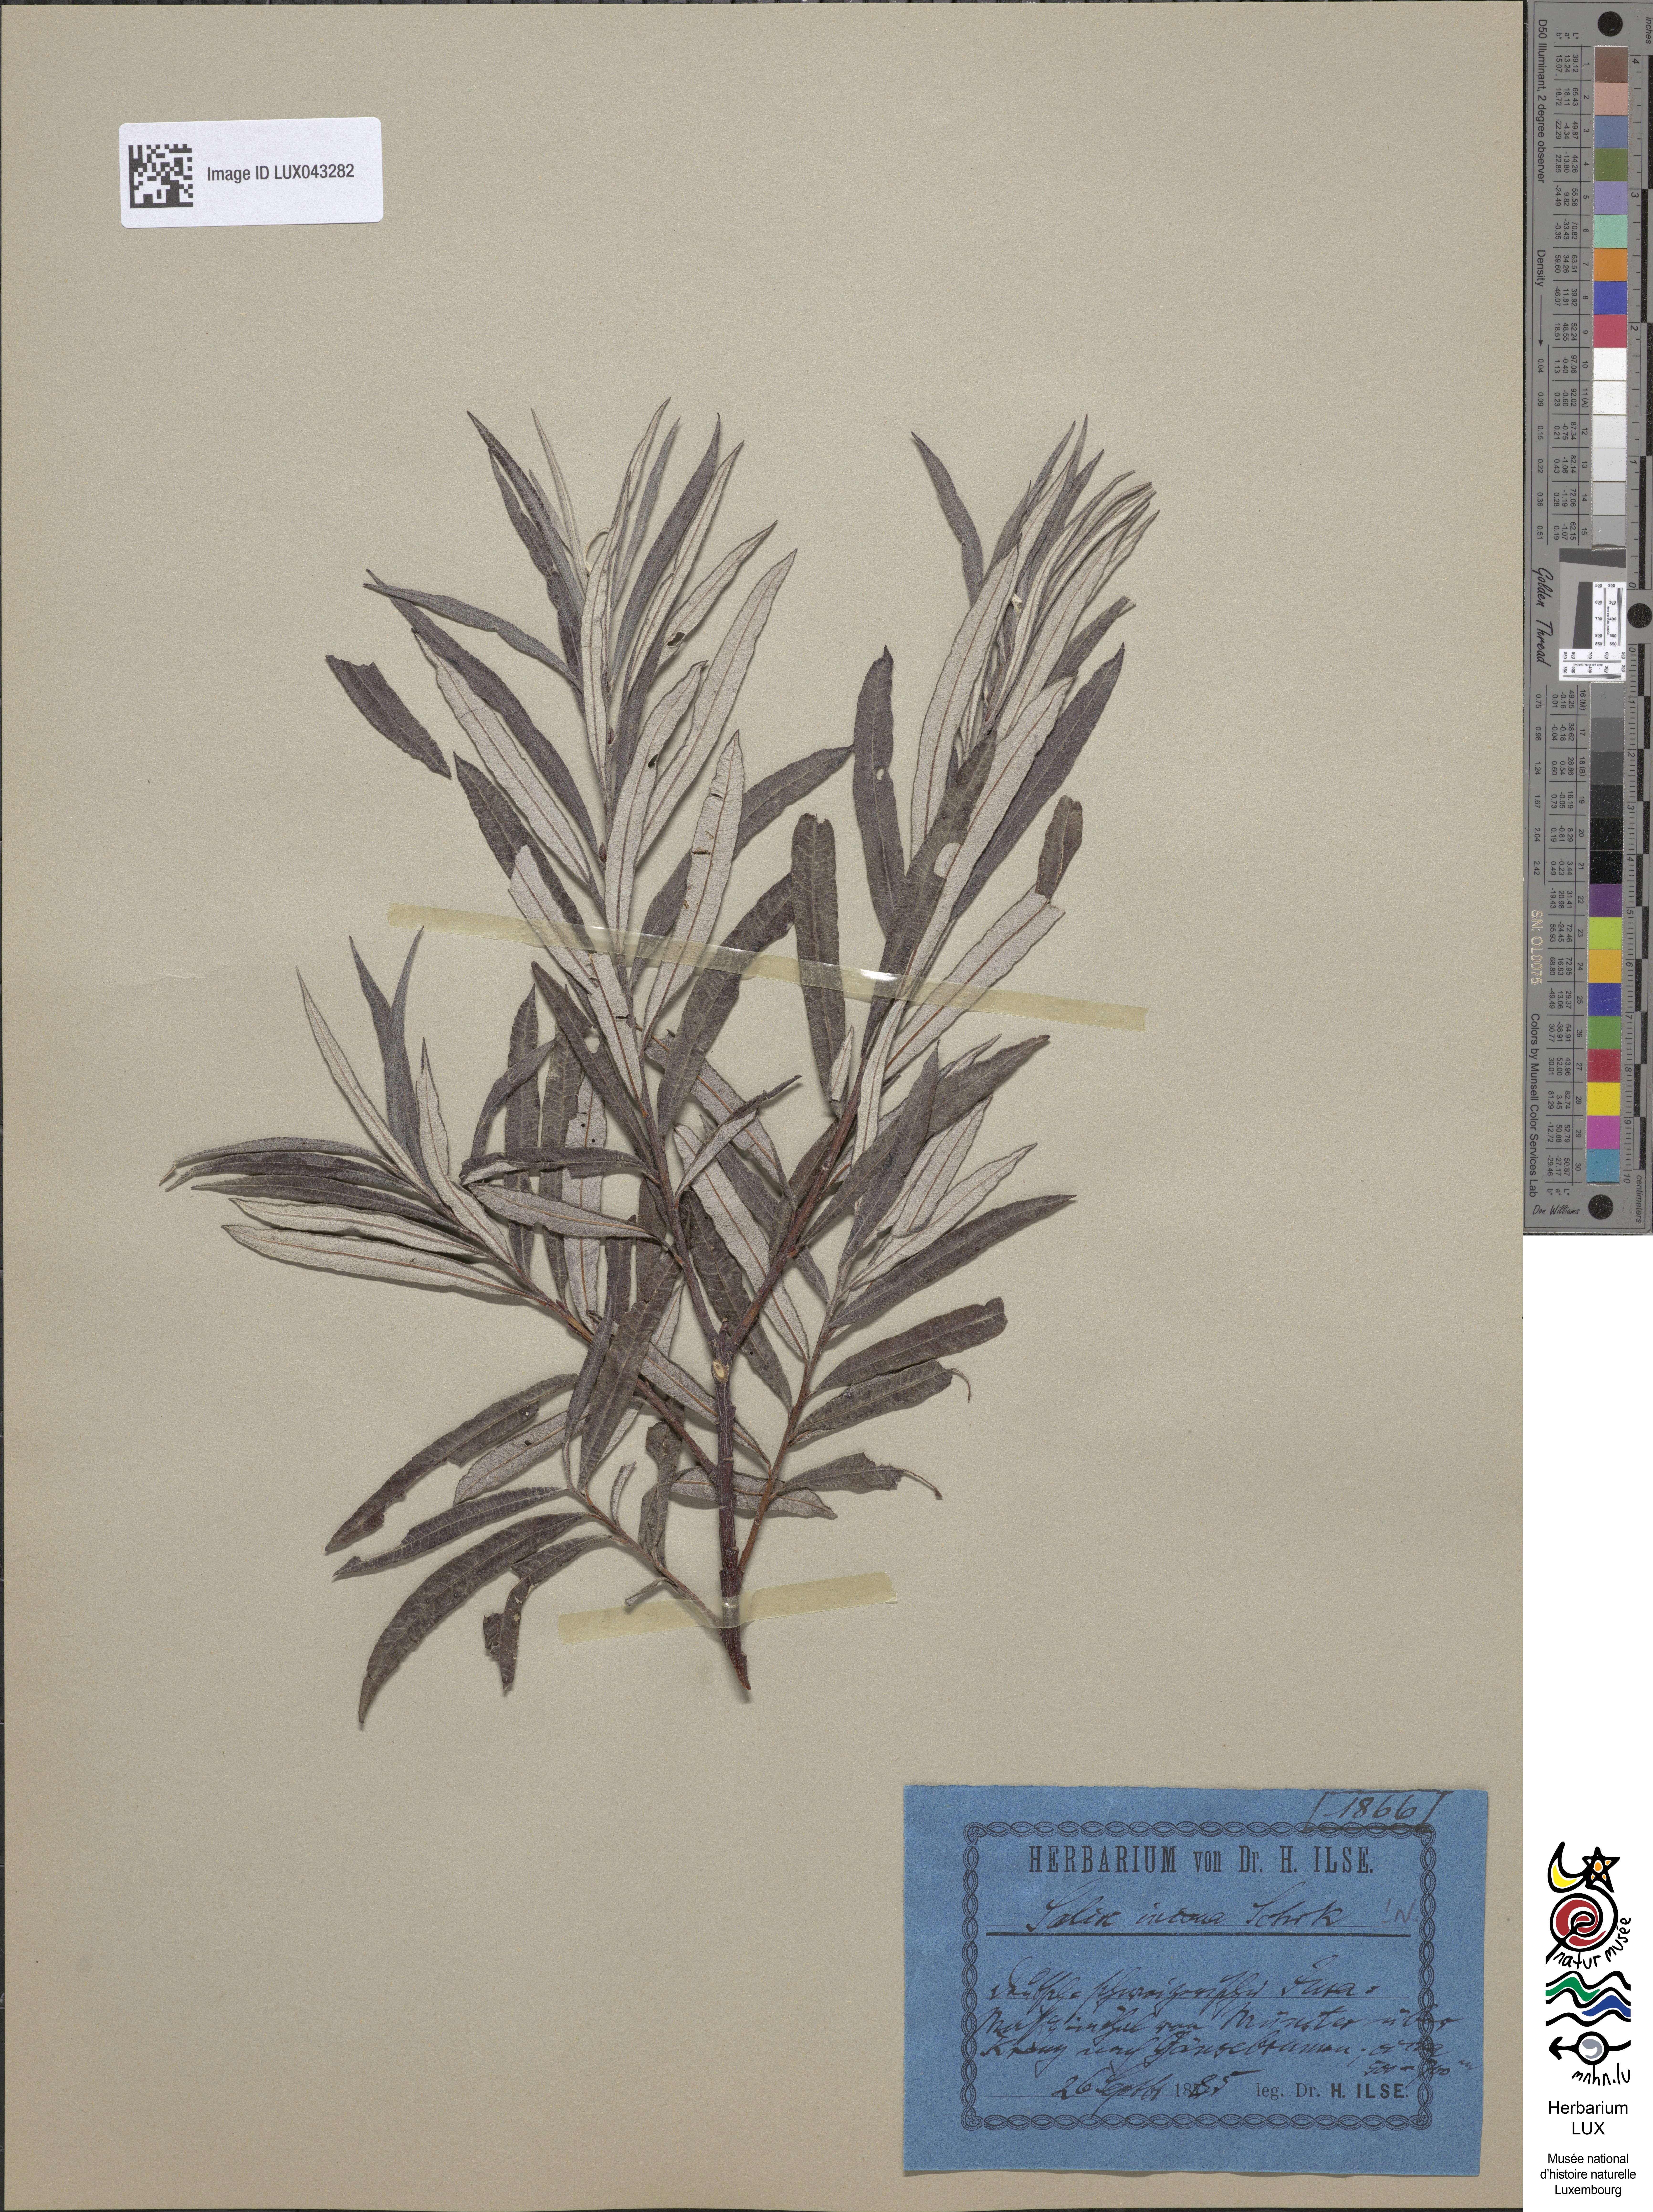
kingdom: Plantae
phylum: Tracheophyta
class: Magnoliopsida
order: Malpighiales
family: Salicaceae
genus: Salix
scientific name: Salix eleagnos
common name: Elaeagnus willow
